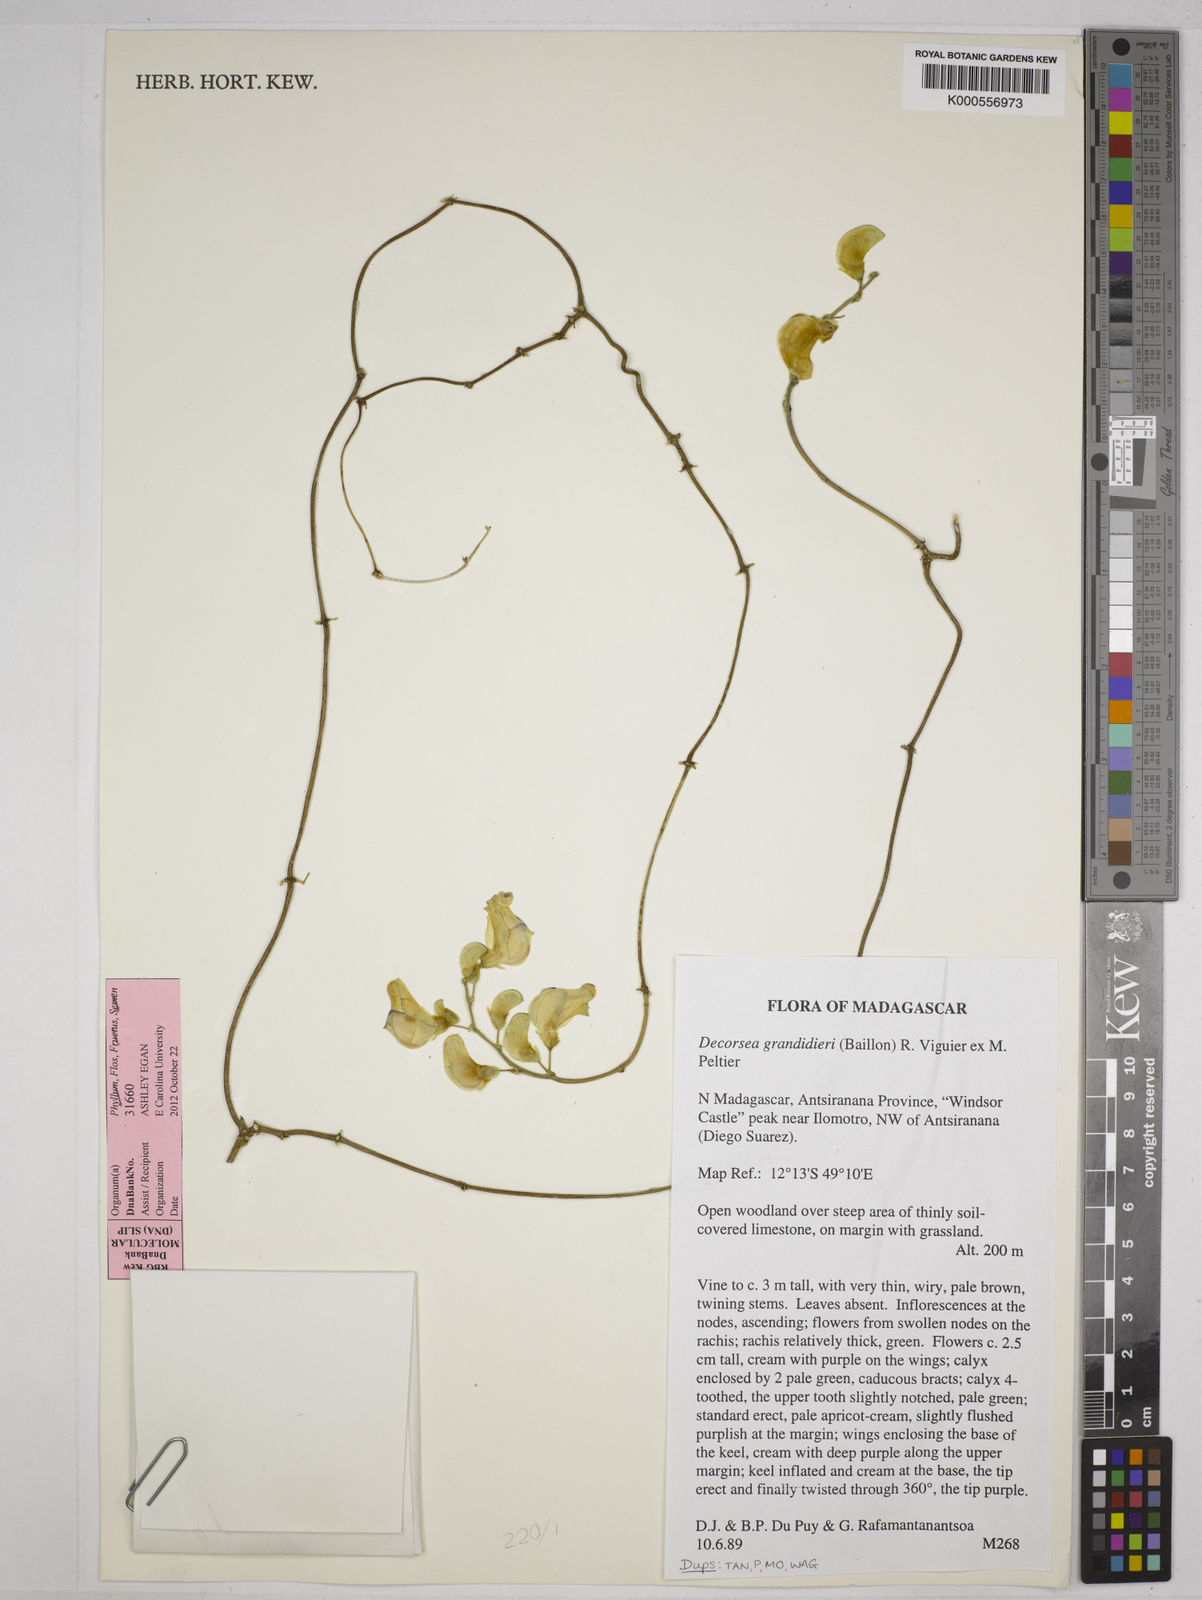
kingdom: Plantae
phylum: Tracheophyta
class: Magnoliopsida
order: Fabales
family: Fabaceae
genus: Decorsea
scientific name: Decorsea grandidieri
